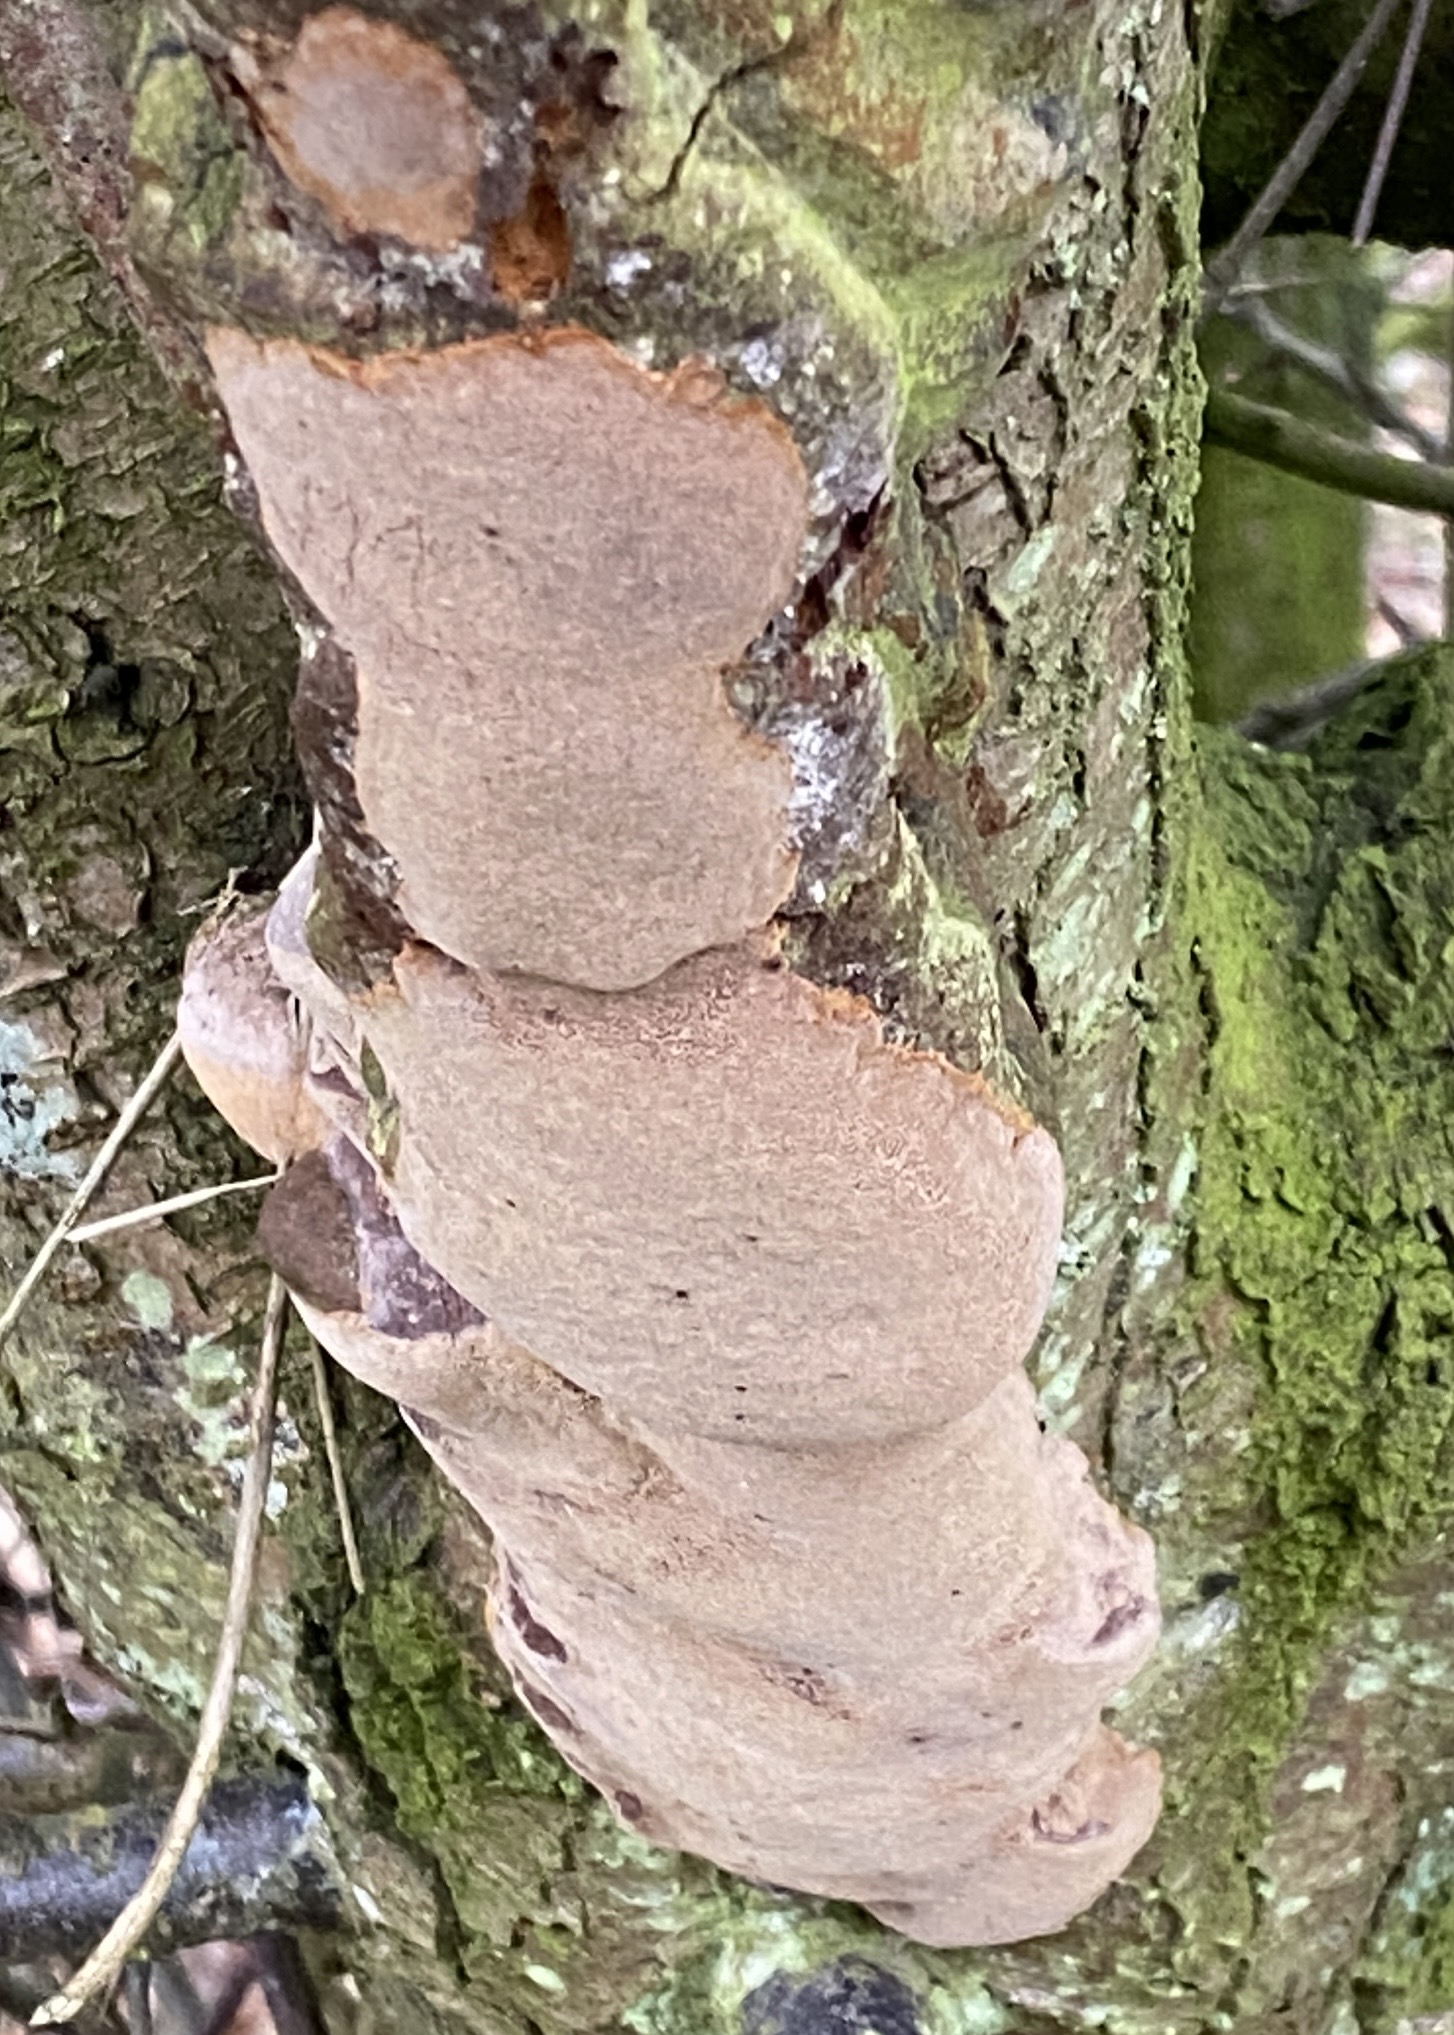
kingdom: Fungi
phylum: Basidiomycota
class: Agaricomycetes
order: Hymenochaetales
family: Hymenochaetaceae
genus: Phellinus
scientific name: Phellinus pomaceus
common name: blomme-ildporesvamp
